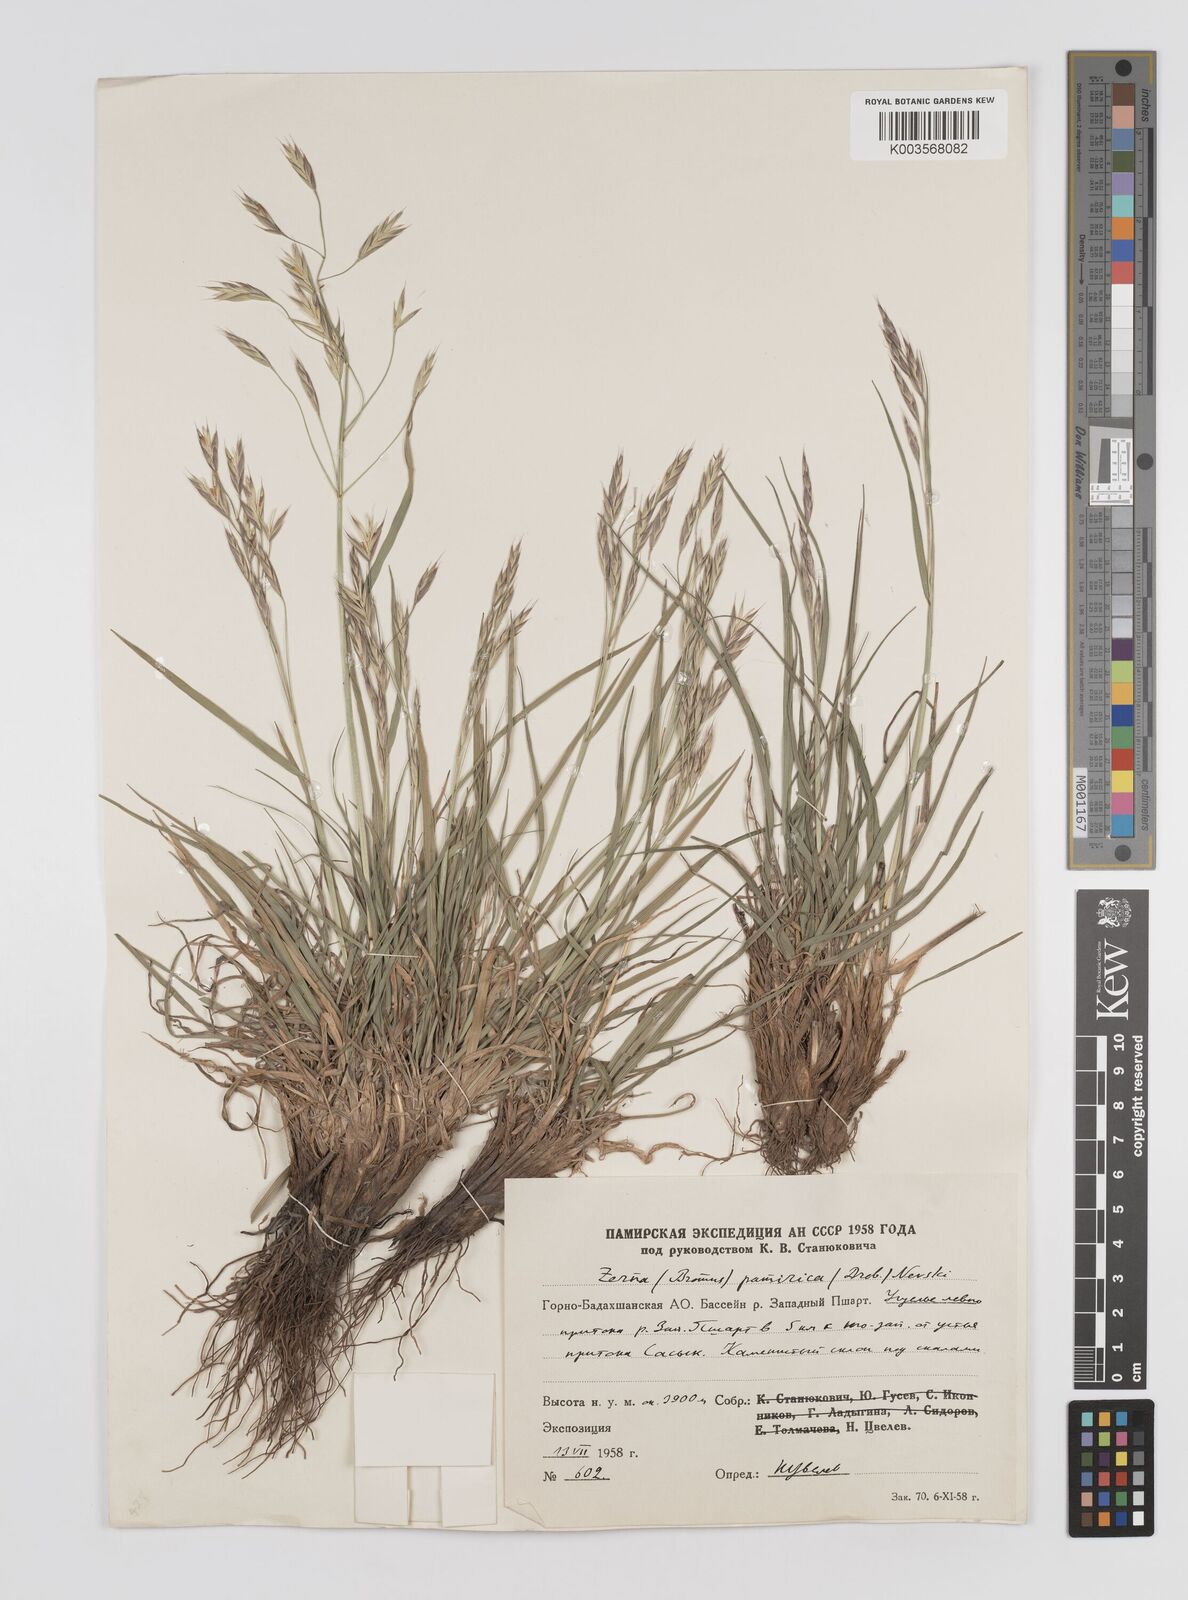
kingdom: Plantae
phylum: Tracheophyta
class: Liliopsida
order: Poales
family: Poaceae
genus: Bromus
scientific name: Bromus paulsenii
